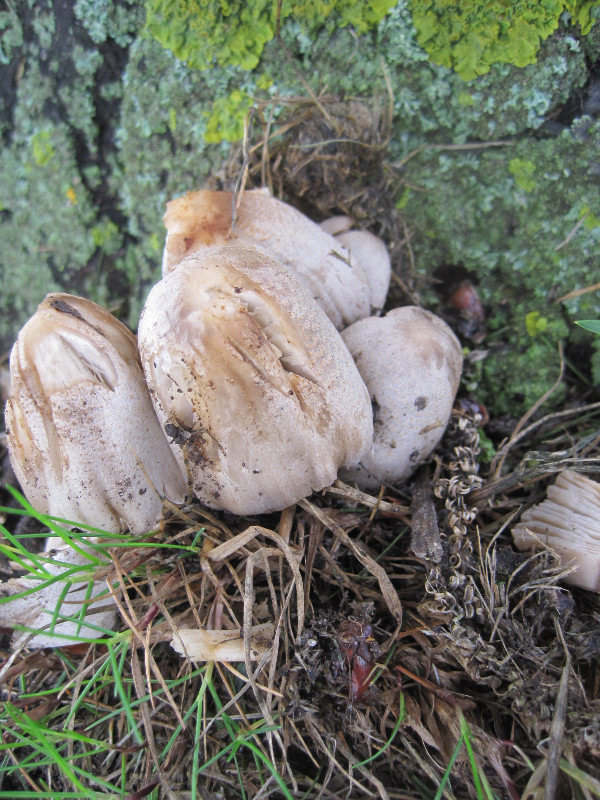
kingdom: Fungi
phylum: Basidiomycota
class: Agaricomycetes
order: Agaricales
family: Psathyrellaceae
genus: Coprinopsis
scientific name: Coprinopsis atramentaria
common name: almindelig blækhat
